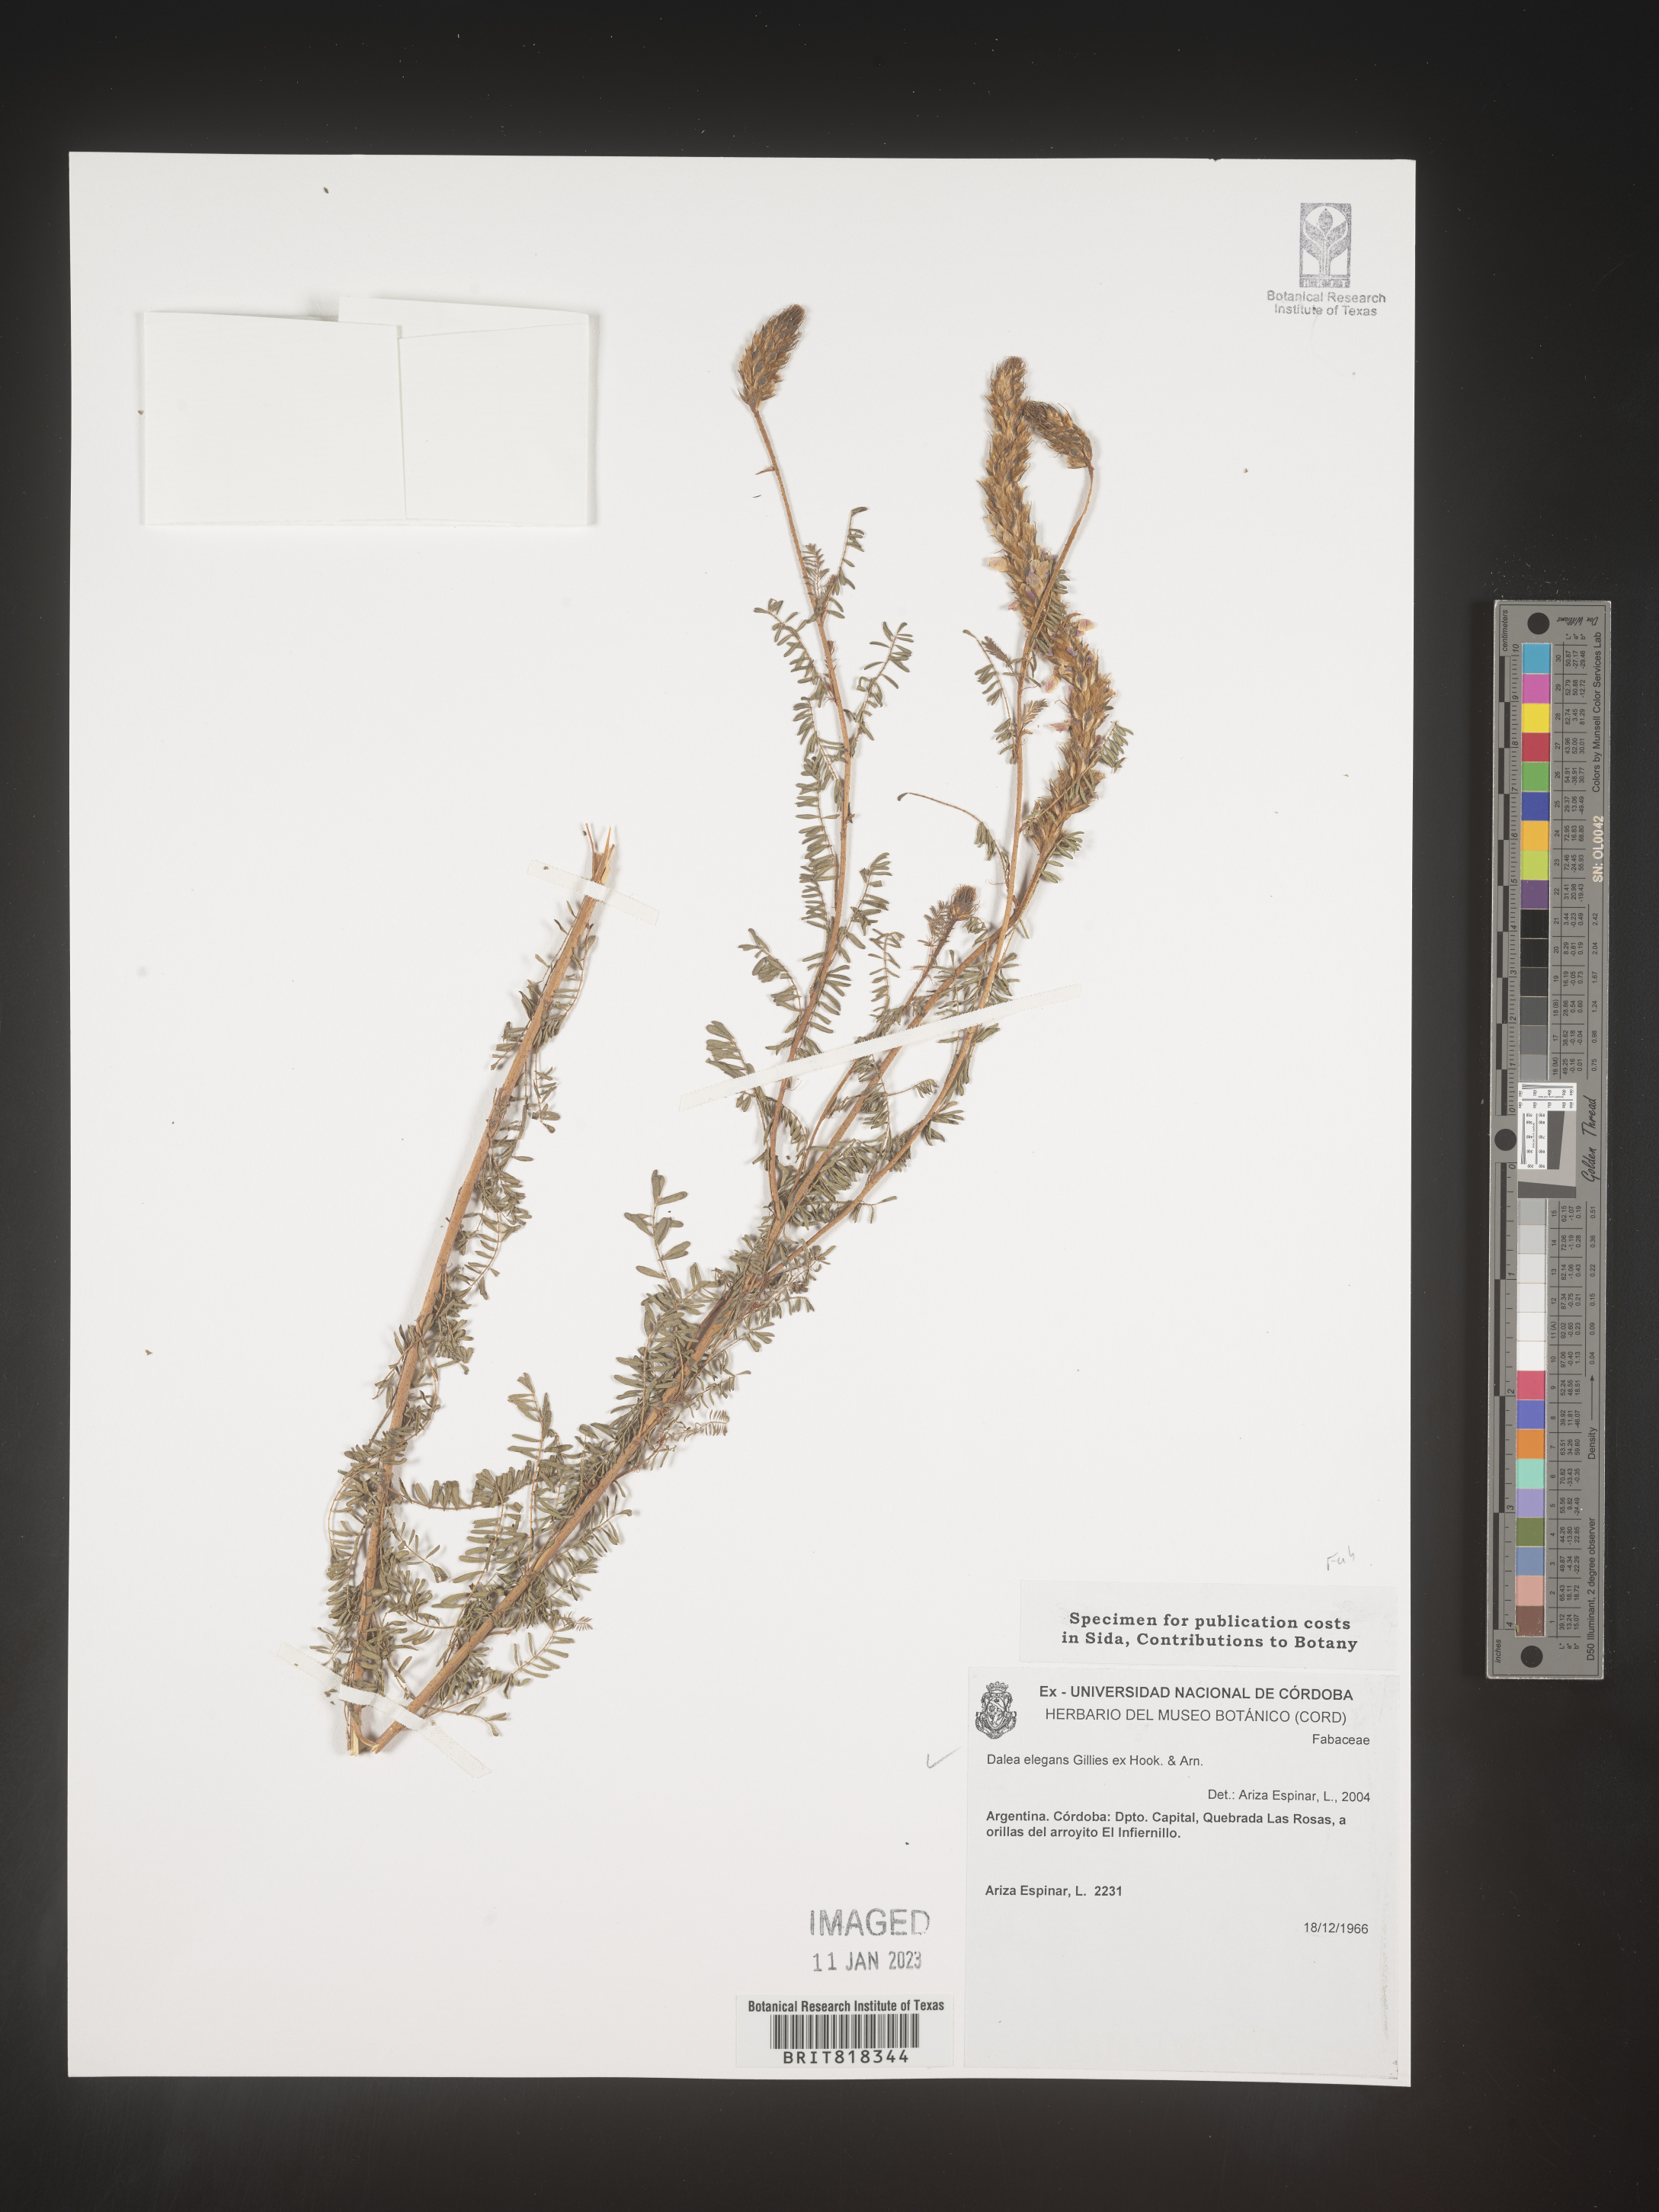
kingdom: Plantae
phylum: Tracheophyta
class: Magnoliopsida
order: Fabales
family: Fabaceae
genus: Dalea
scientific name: Dalea
